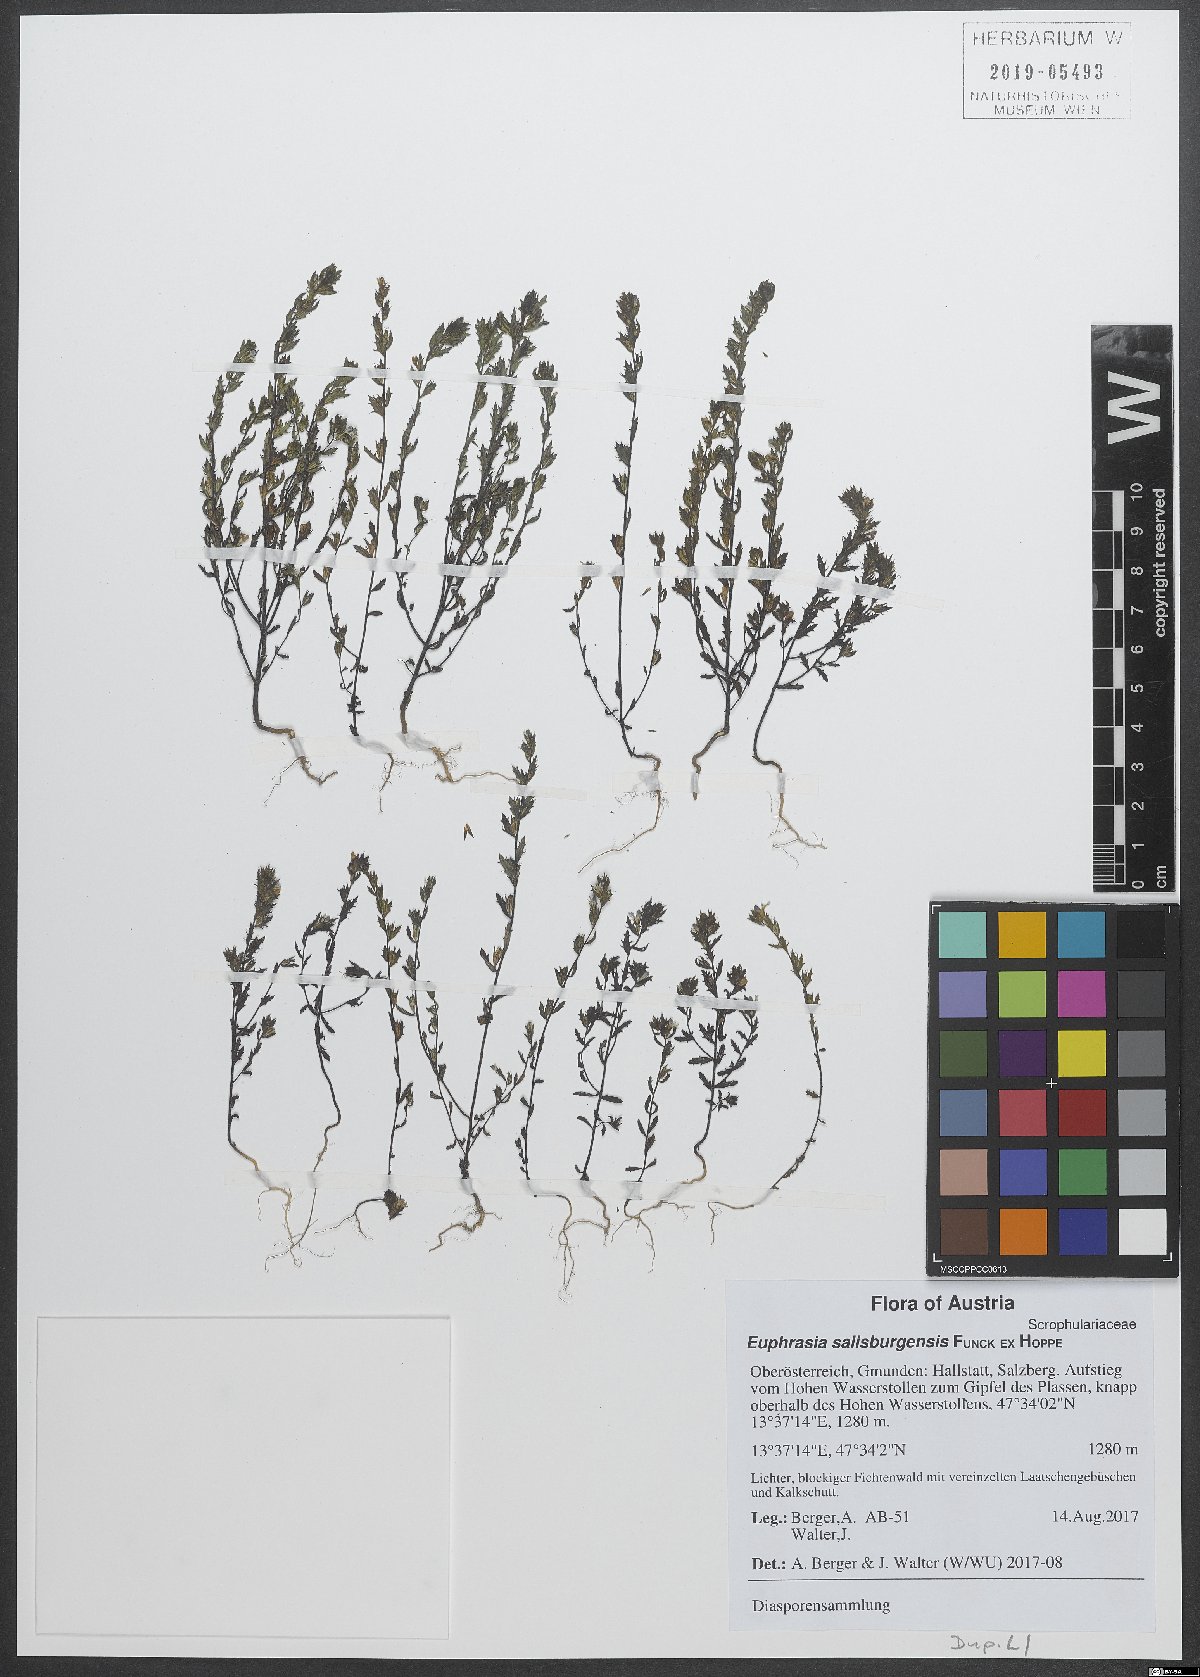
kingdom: Plantae
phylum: Tracheophyta
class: Magnoliopsida
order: Lamiales
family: Orobanchaceae
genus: Euphrasia
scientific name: Euphrasia salisburgensis
